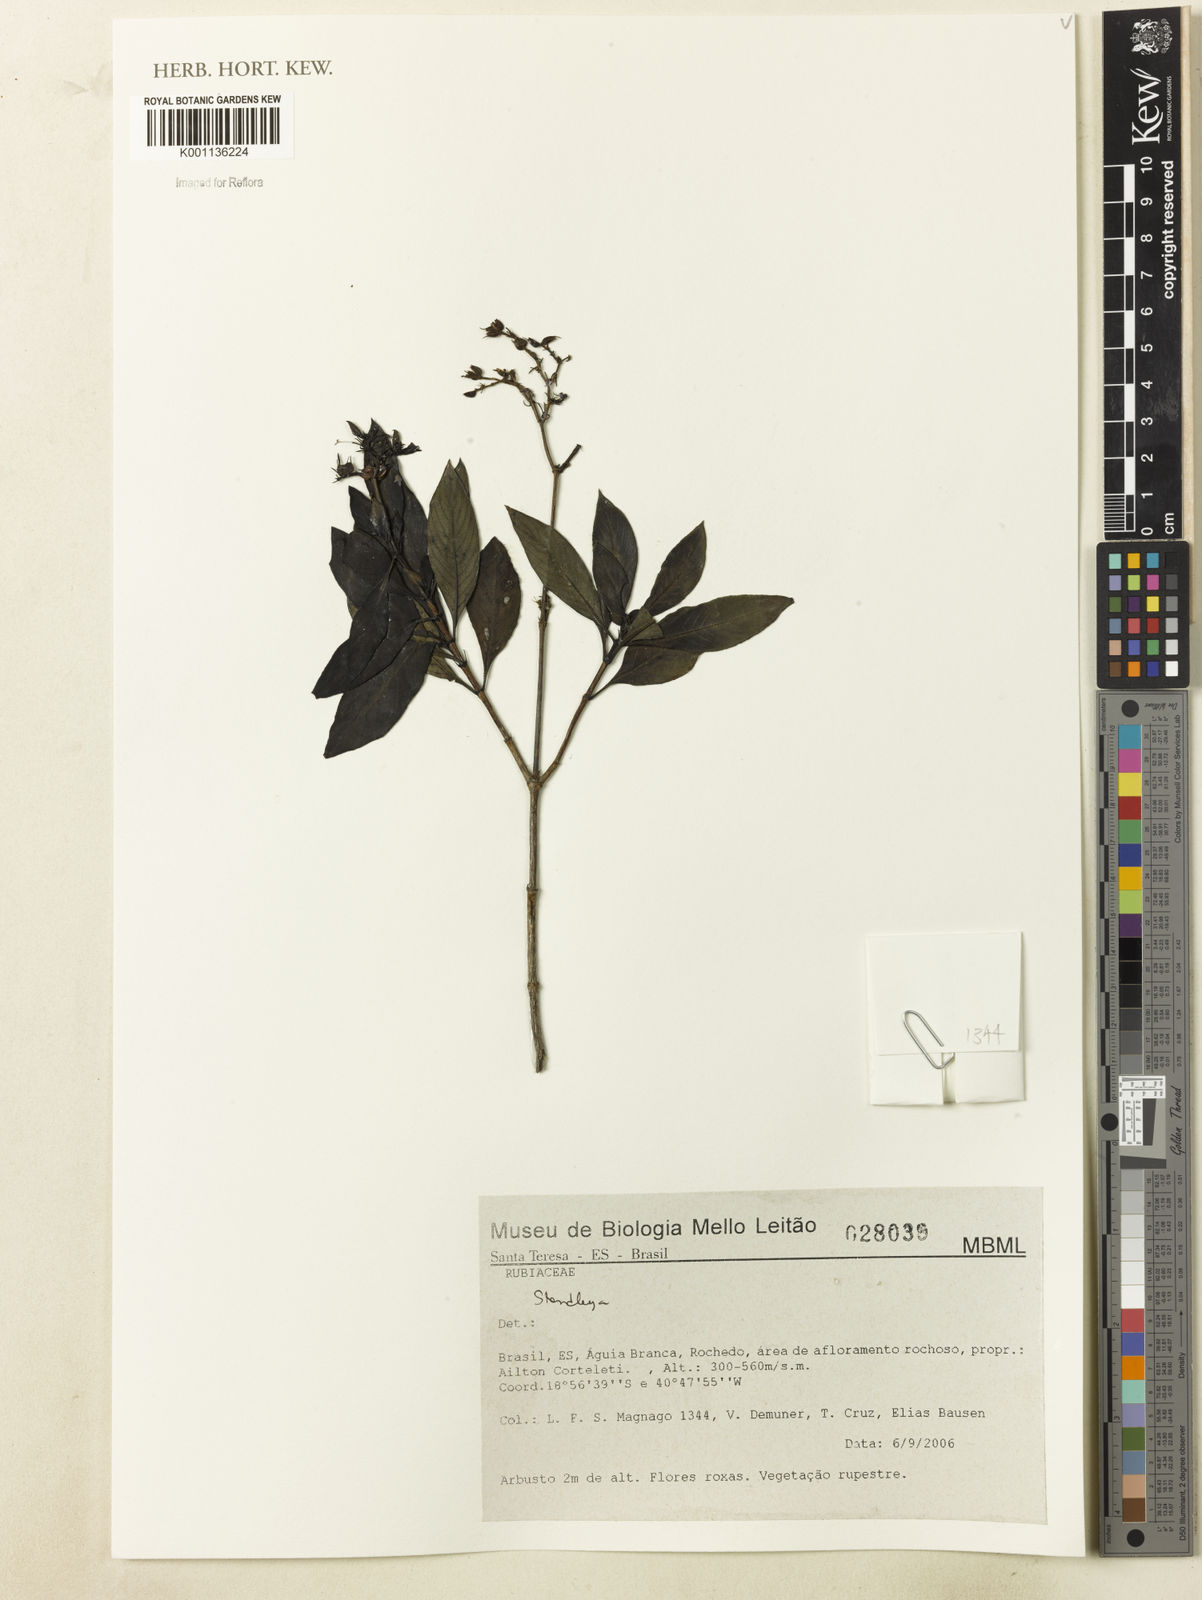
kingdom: Plantae
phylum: Tracheophyta
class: Magnoliopsida
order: Gentianales
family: Rubiaceae
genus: Standleya
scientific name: Standleya
